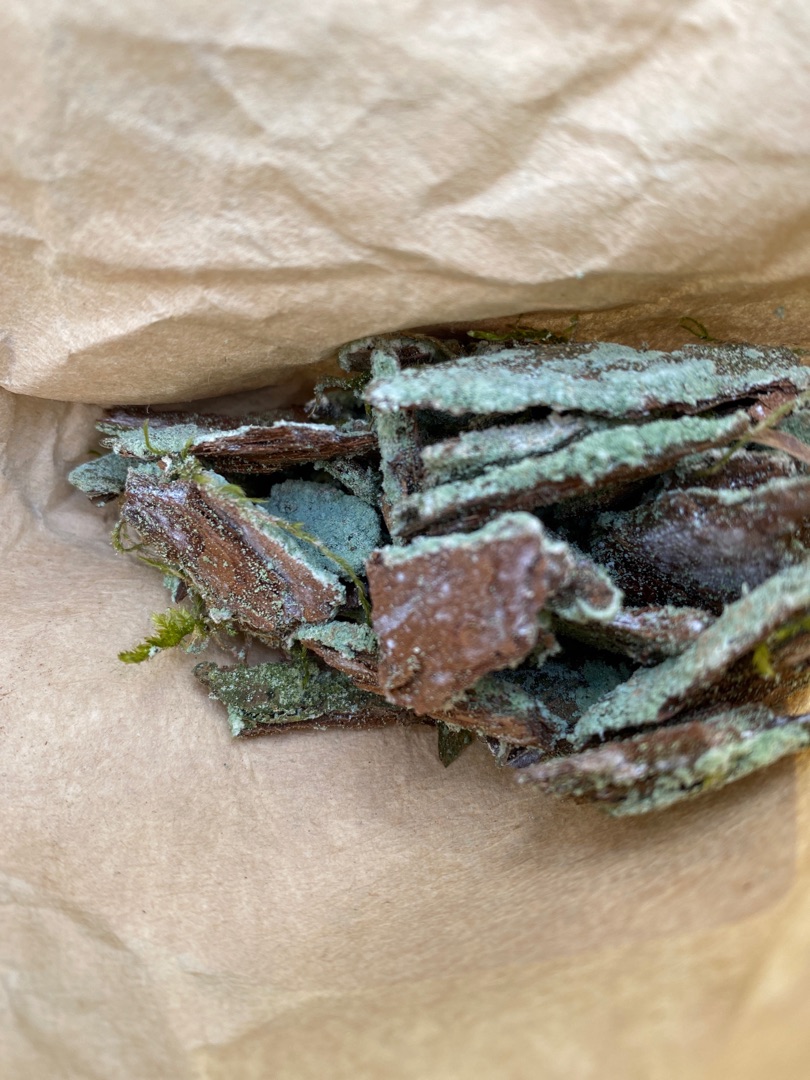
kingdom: Fungi
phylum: Ascomycota
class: Lecanoromycetes
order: Lecanorales
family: Stereocaulaceae
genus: Lepraria
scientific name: Lepraria
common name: Støvlav
